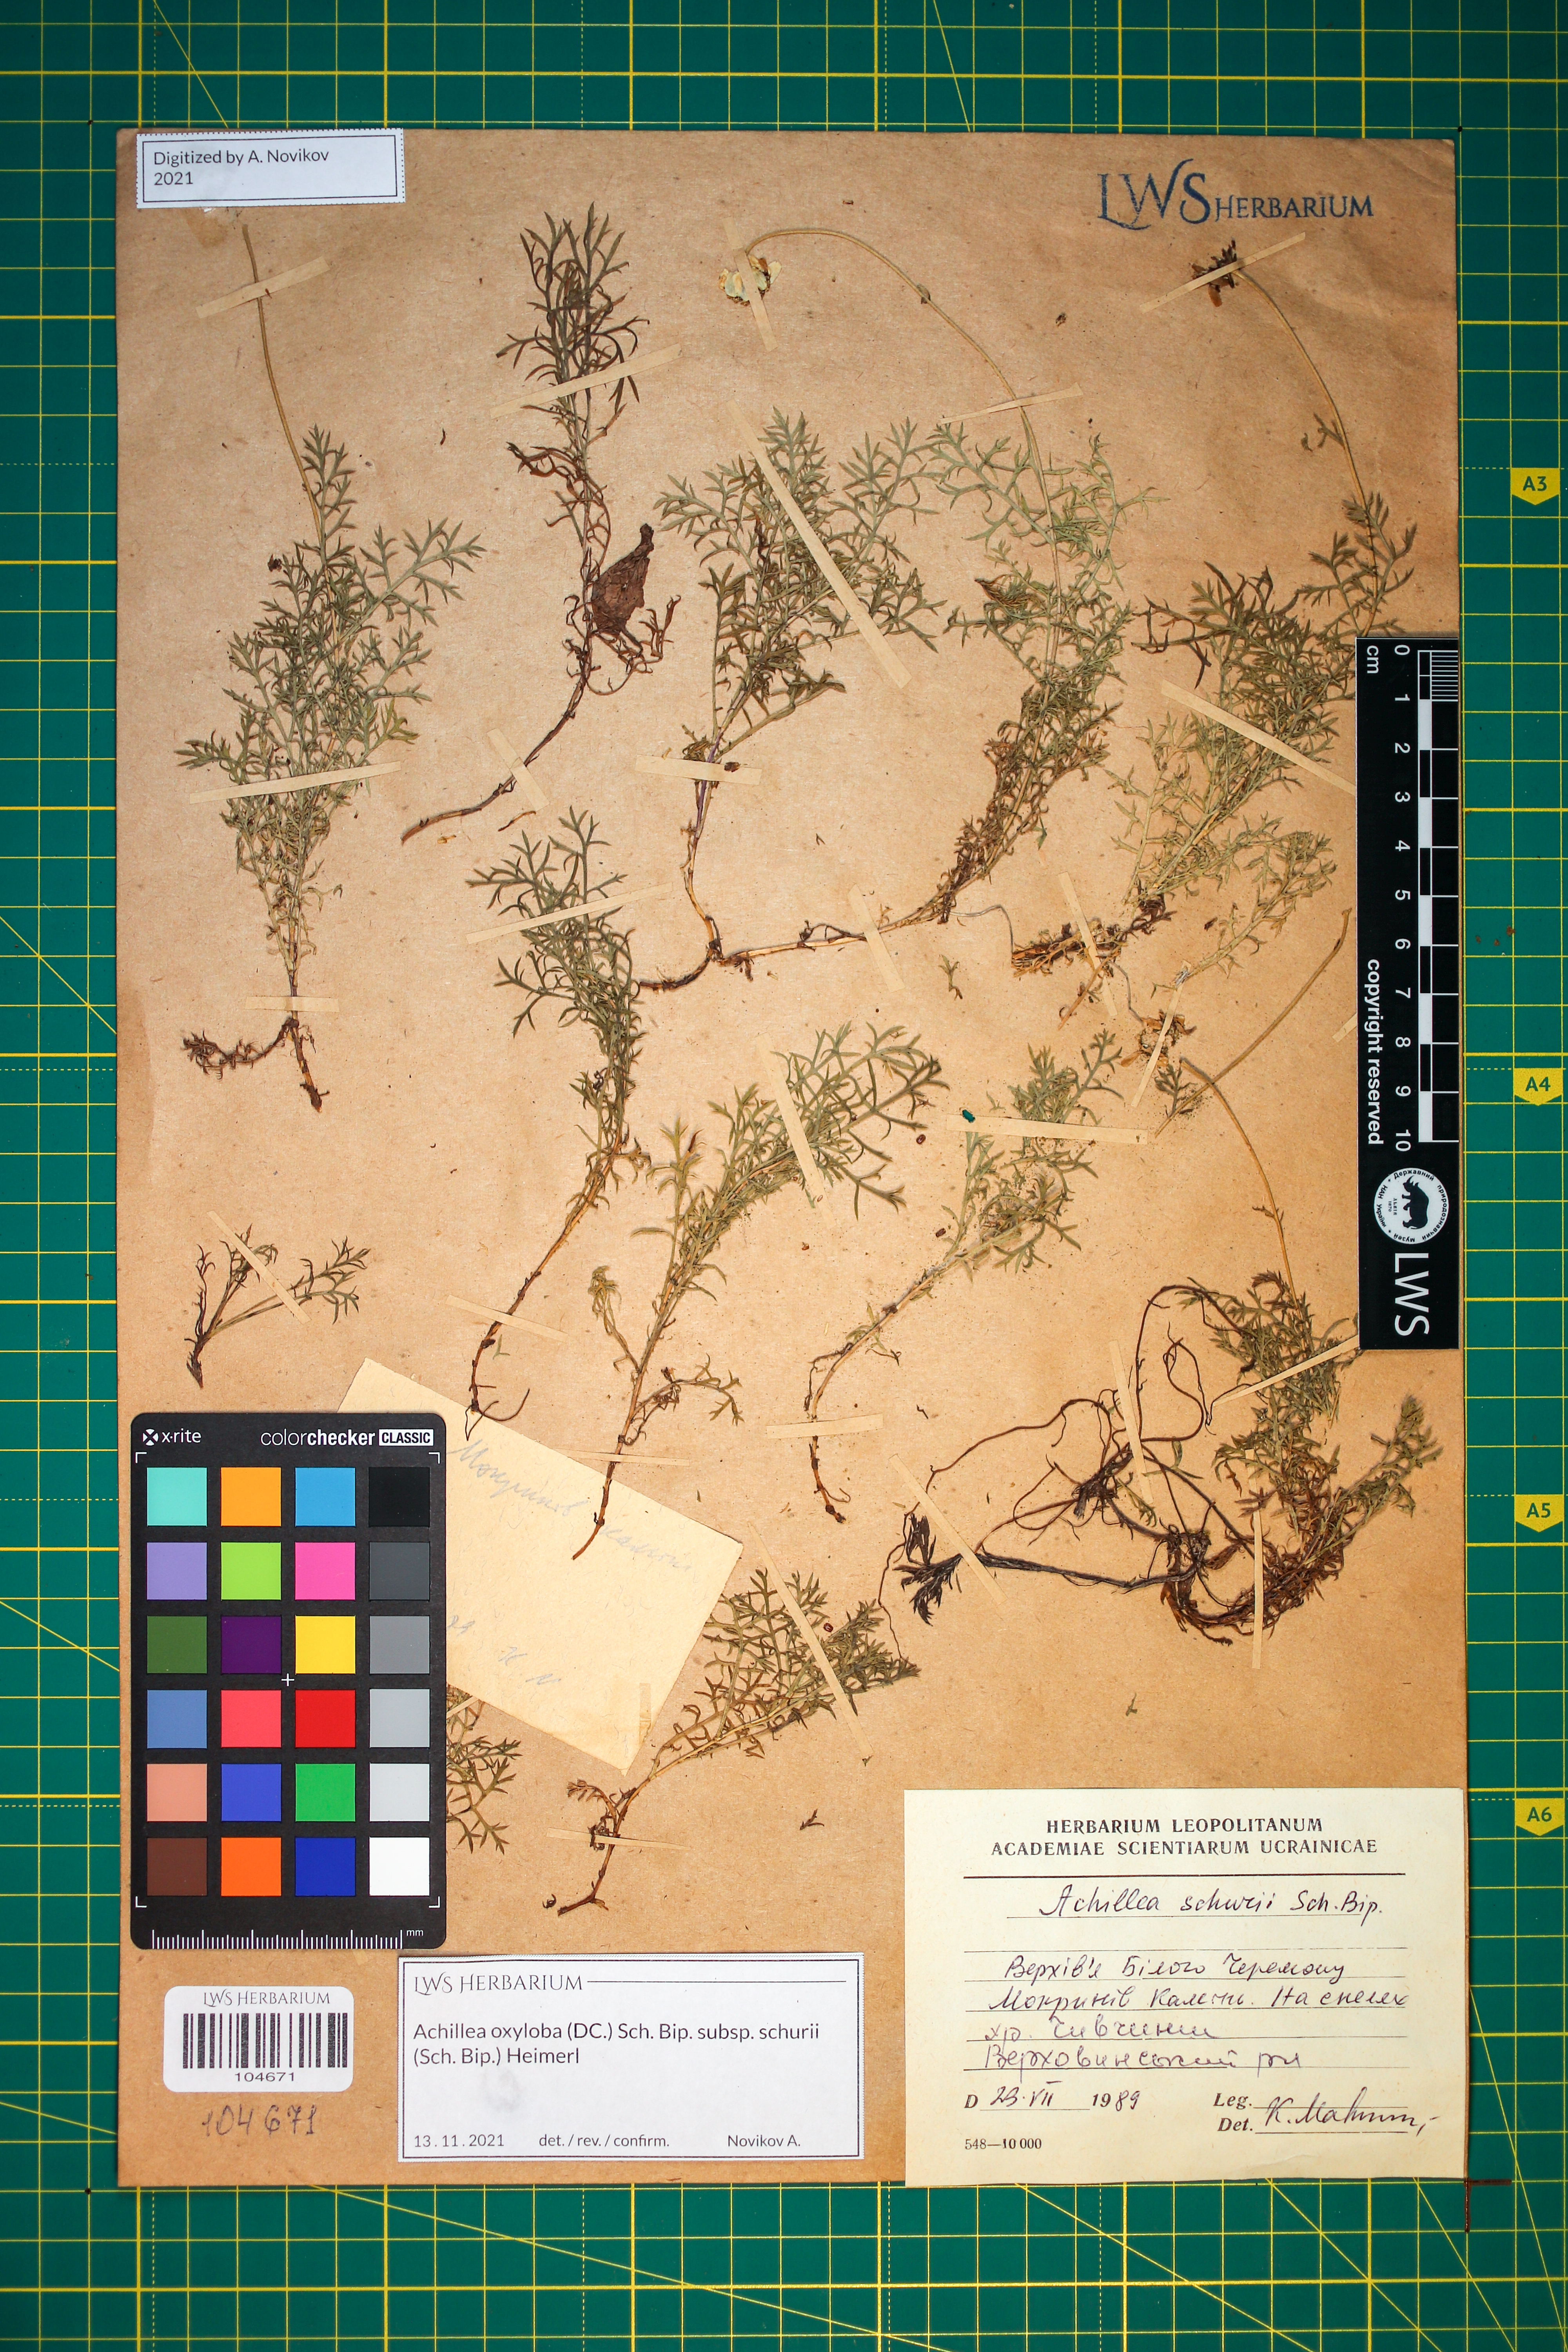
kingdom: Plantae
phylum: Tracheophyta
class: Magnoliopsida
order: Asterales
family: Asteraceae
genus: Achillea
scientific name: Achillea oxyloba
